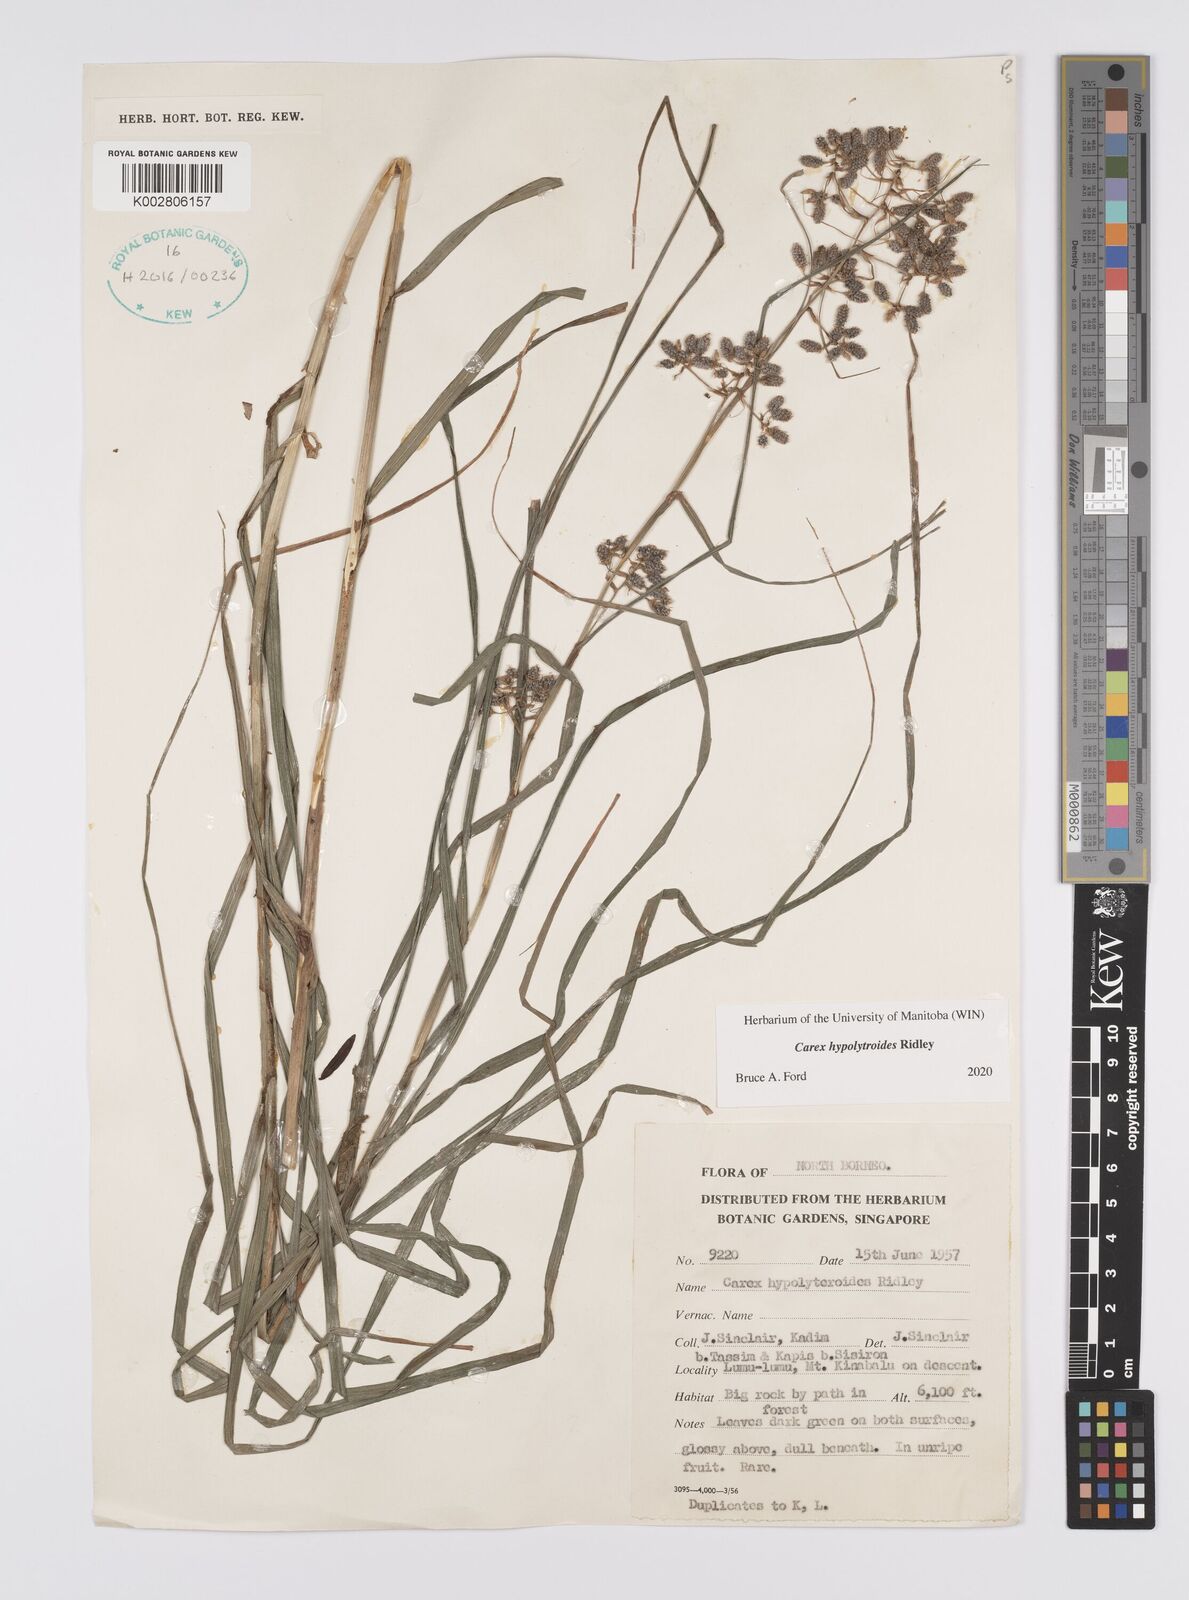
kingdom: Plantae
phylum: Tracheophyta
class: Liliopsida
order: Poales
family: Cyperaceae
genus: Carex
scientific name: Carex hypolytroides
